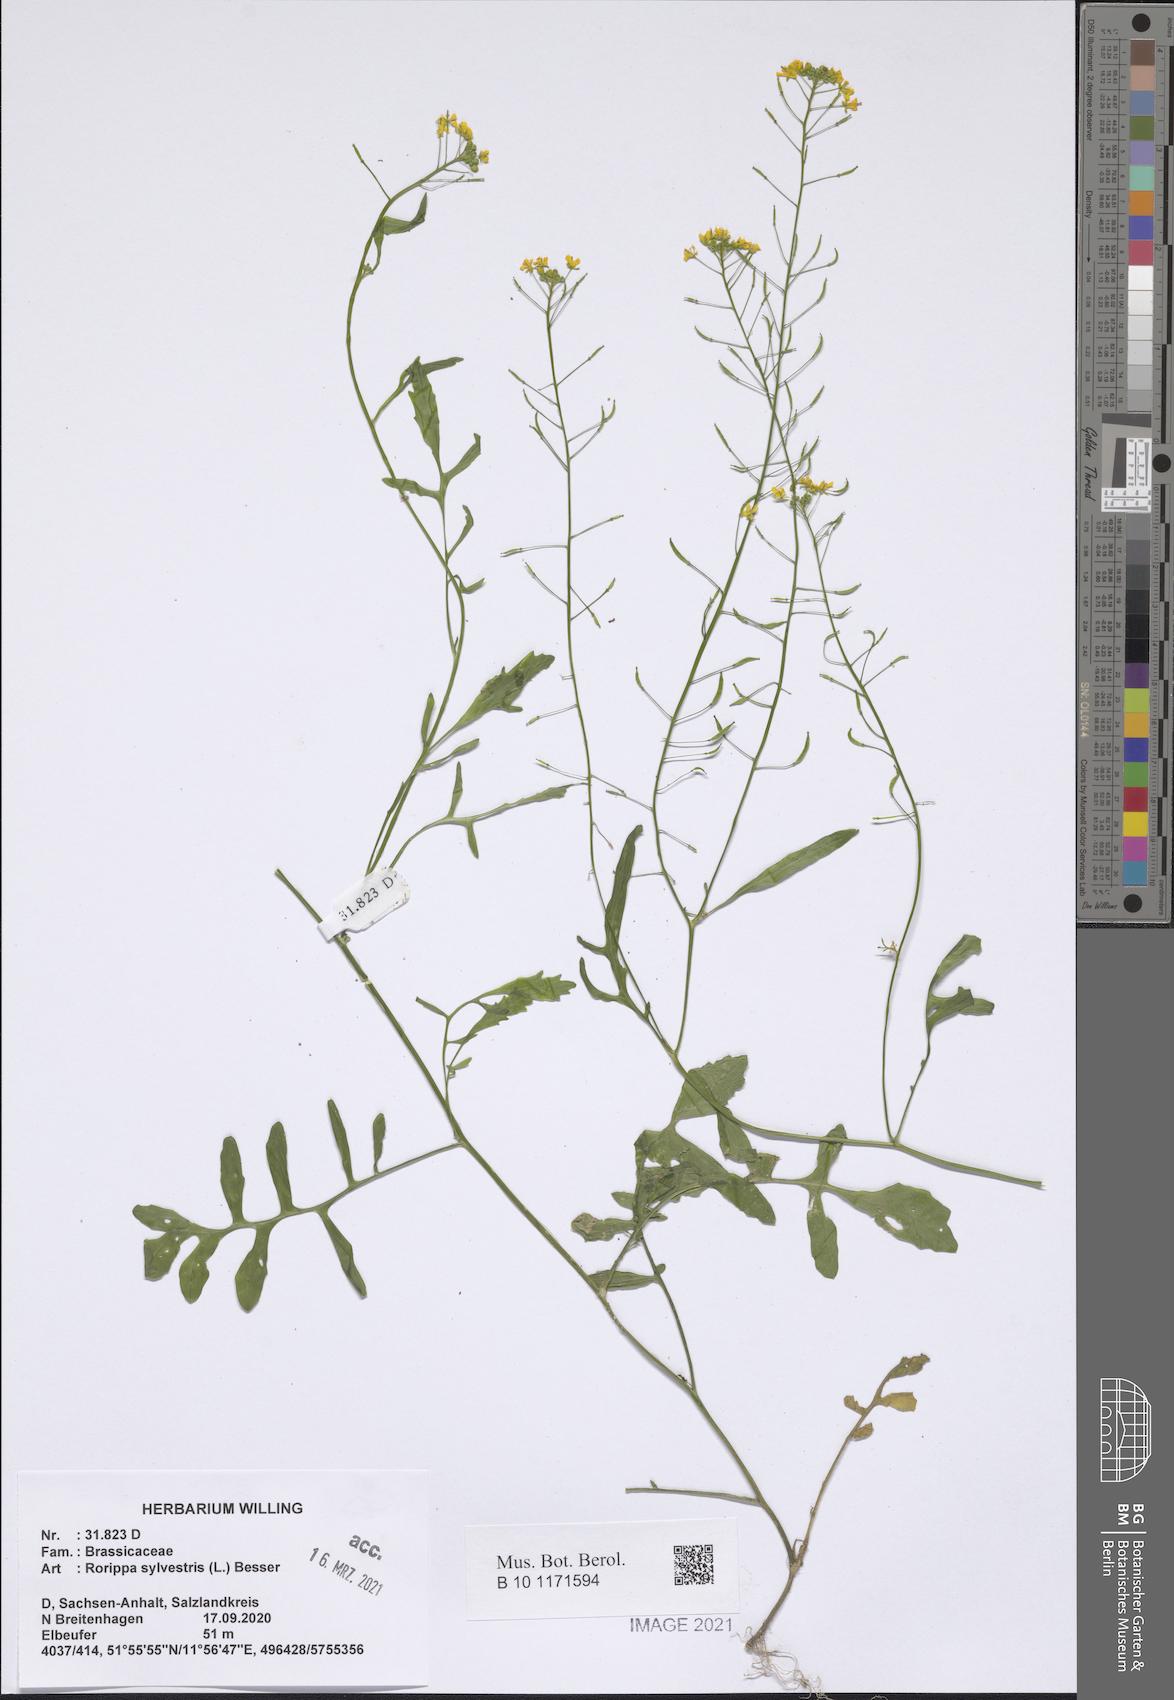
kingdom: Plantae
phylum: Tracheophyta
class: Magnoliopsida
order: Brassicales
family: Brassicaceae
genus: Rorippa
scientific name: Rorippa sylvestris
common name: Creeping yellowcress
